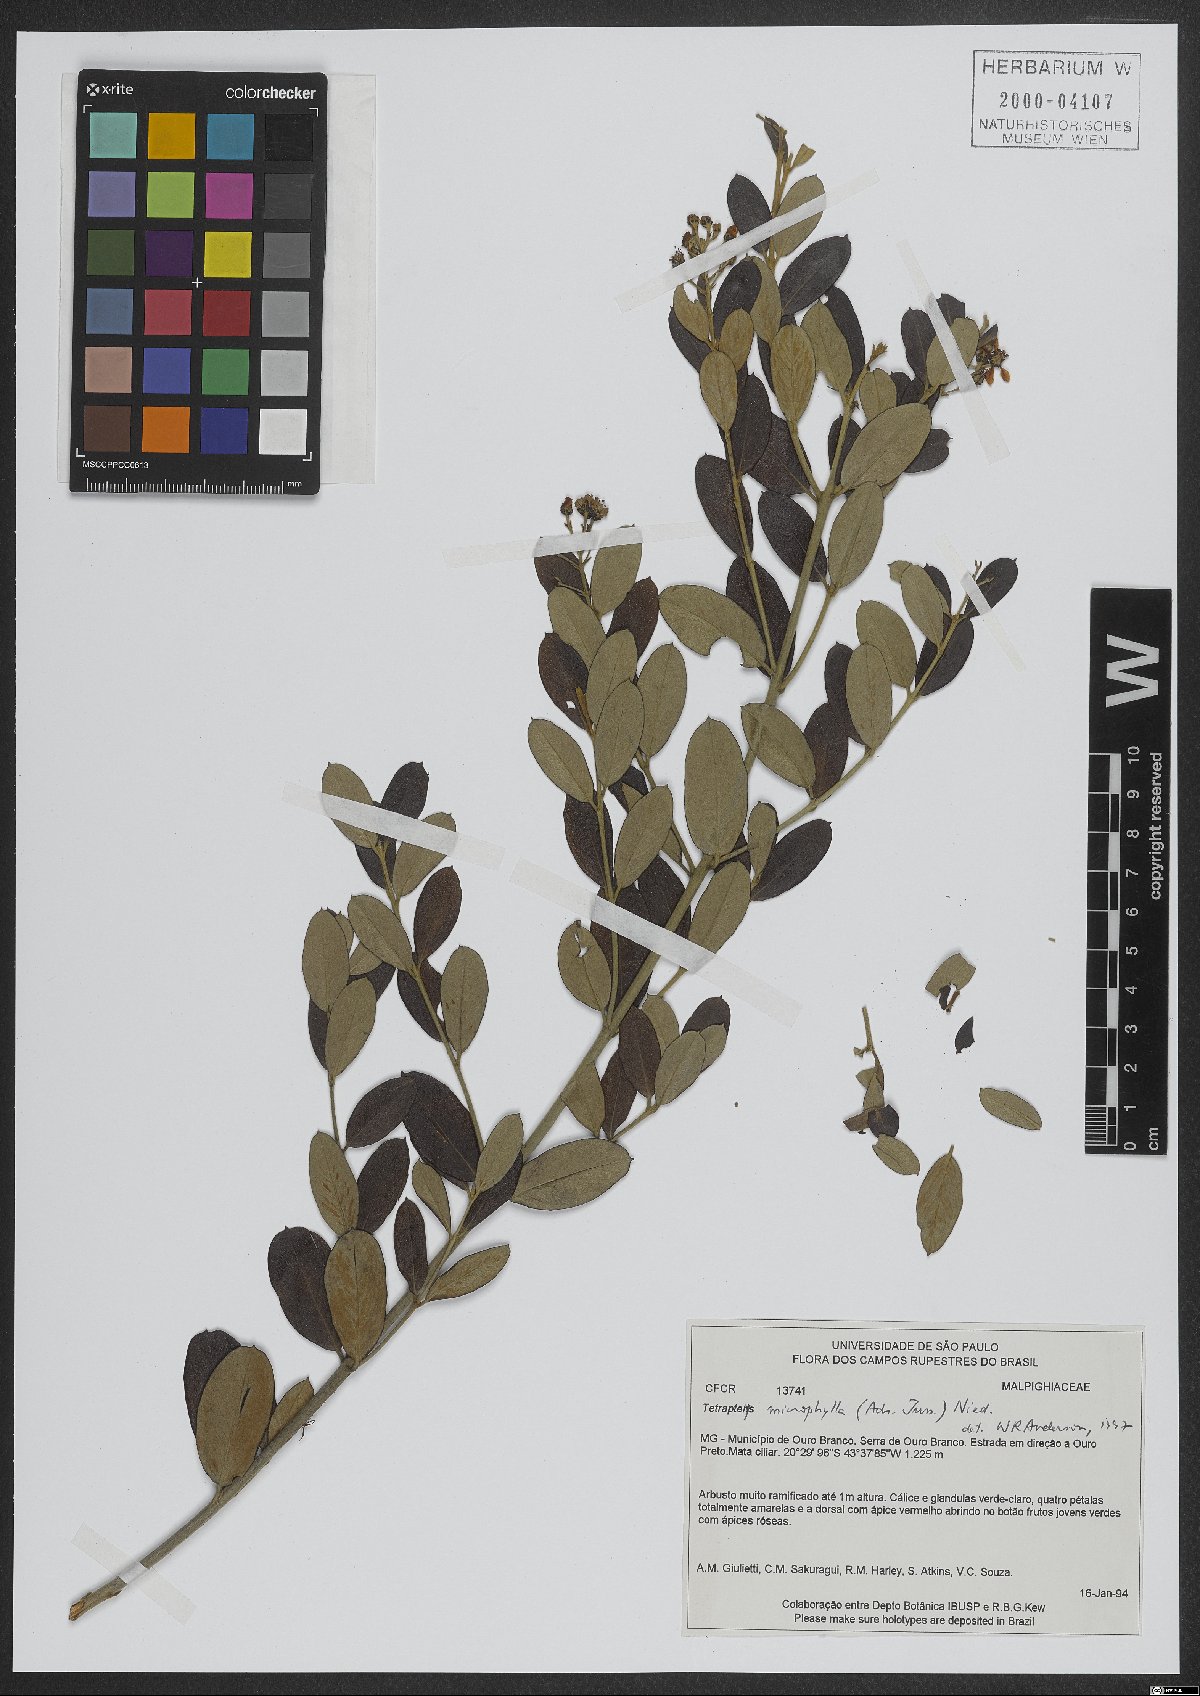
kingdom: Plantae
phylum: Tracheophyta
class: Magnoliopsida
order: Malpighiales
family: Malpighiaceae
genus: Glicophyllum
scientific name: Glicophyllum microphyllum
